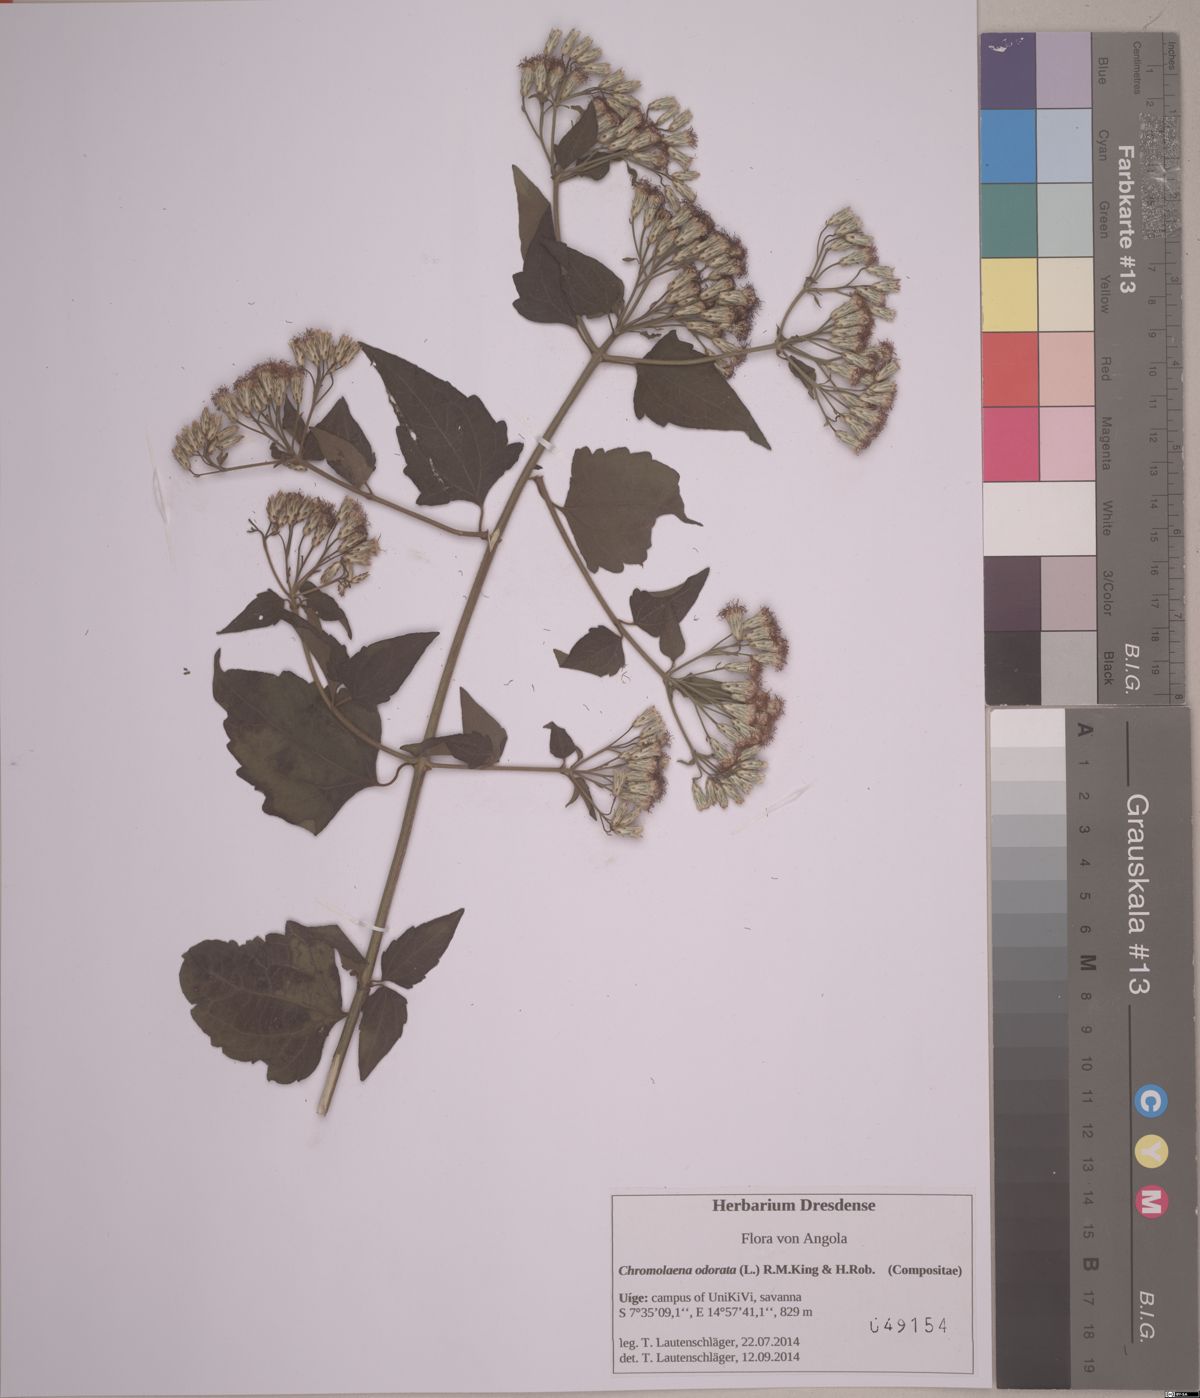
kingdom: Plantae
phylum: Tracheophyta
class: Magnoliopsida
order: Asterales
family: Asteraceae
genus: Chromolaena
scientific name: Chromolaena odorata
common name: Siamweed
